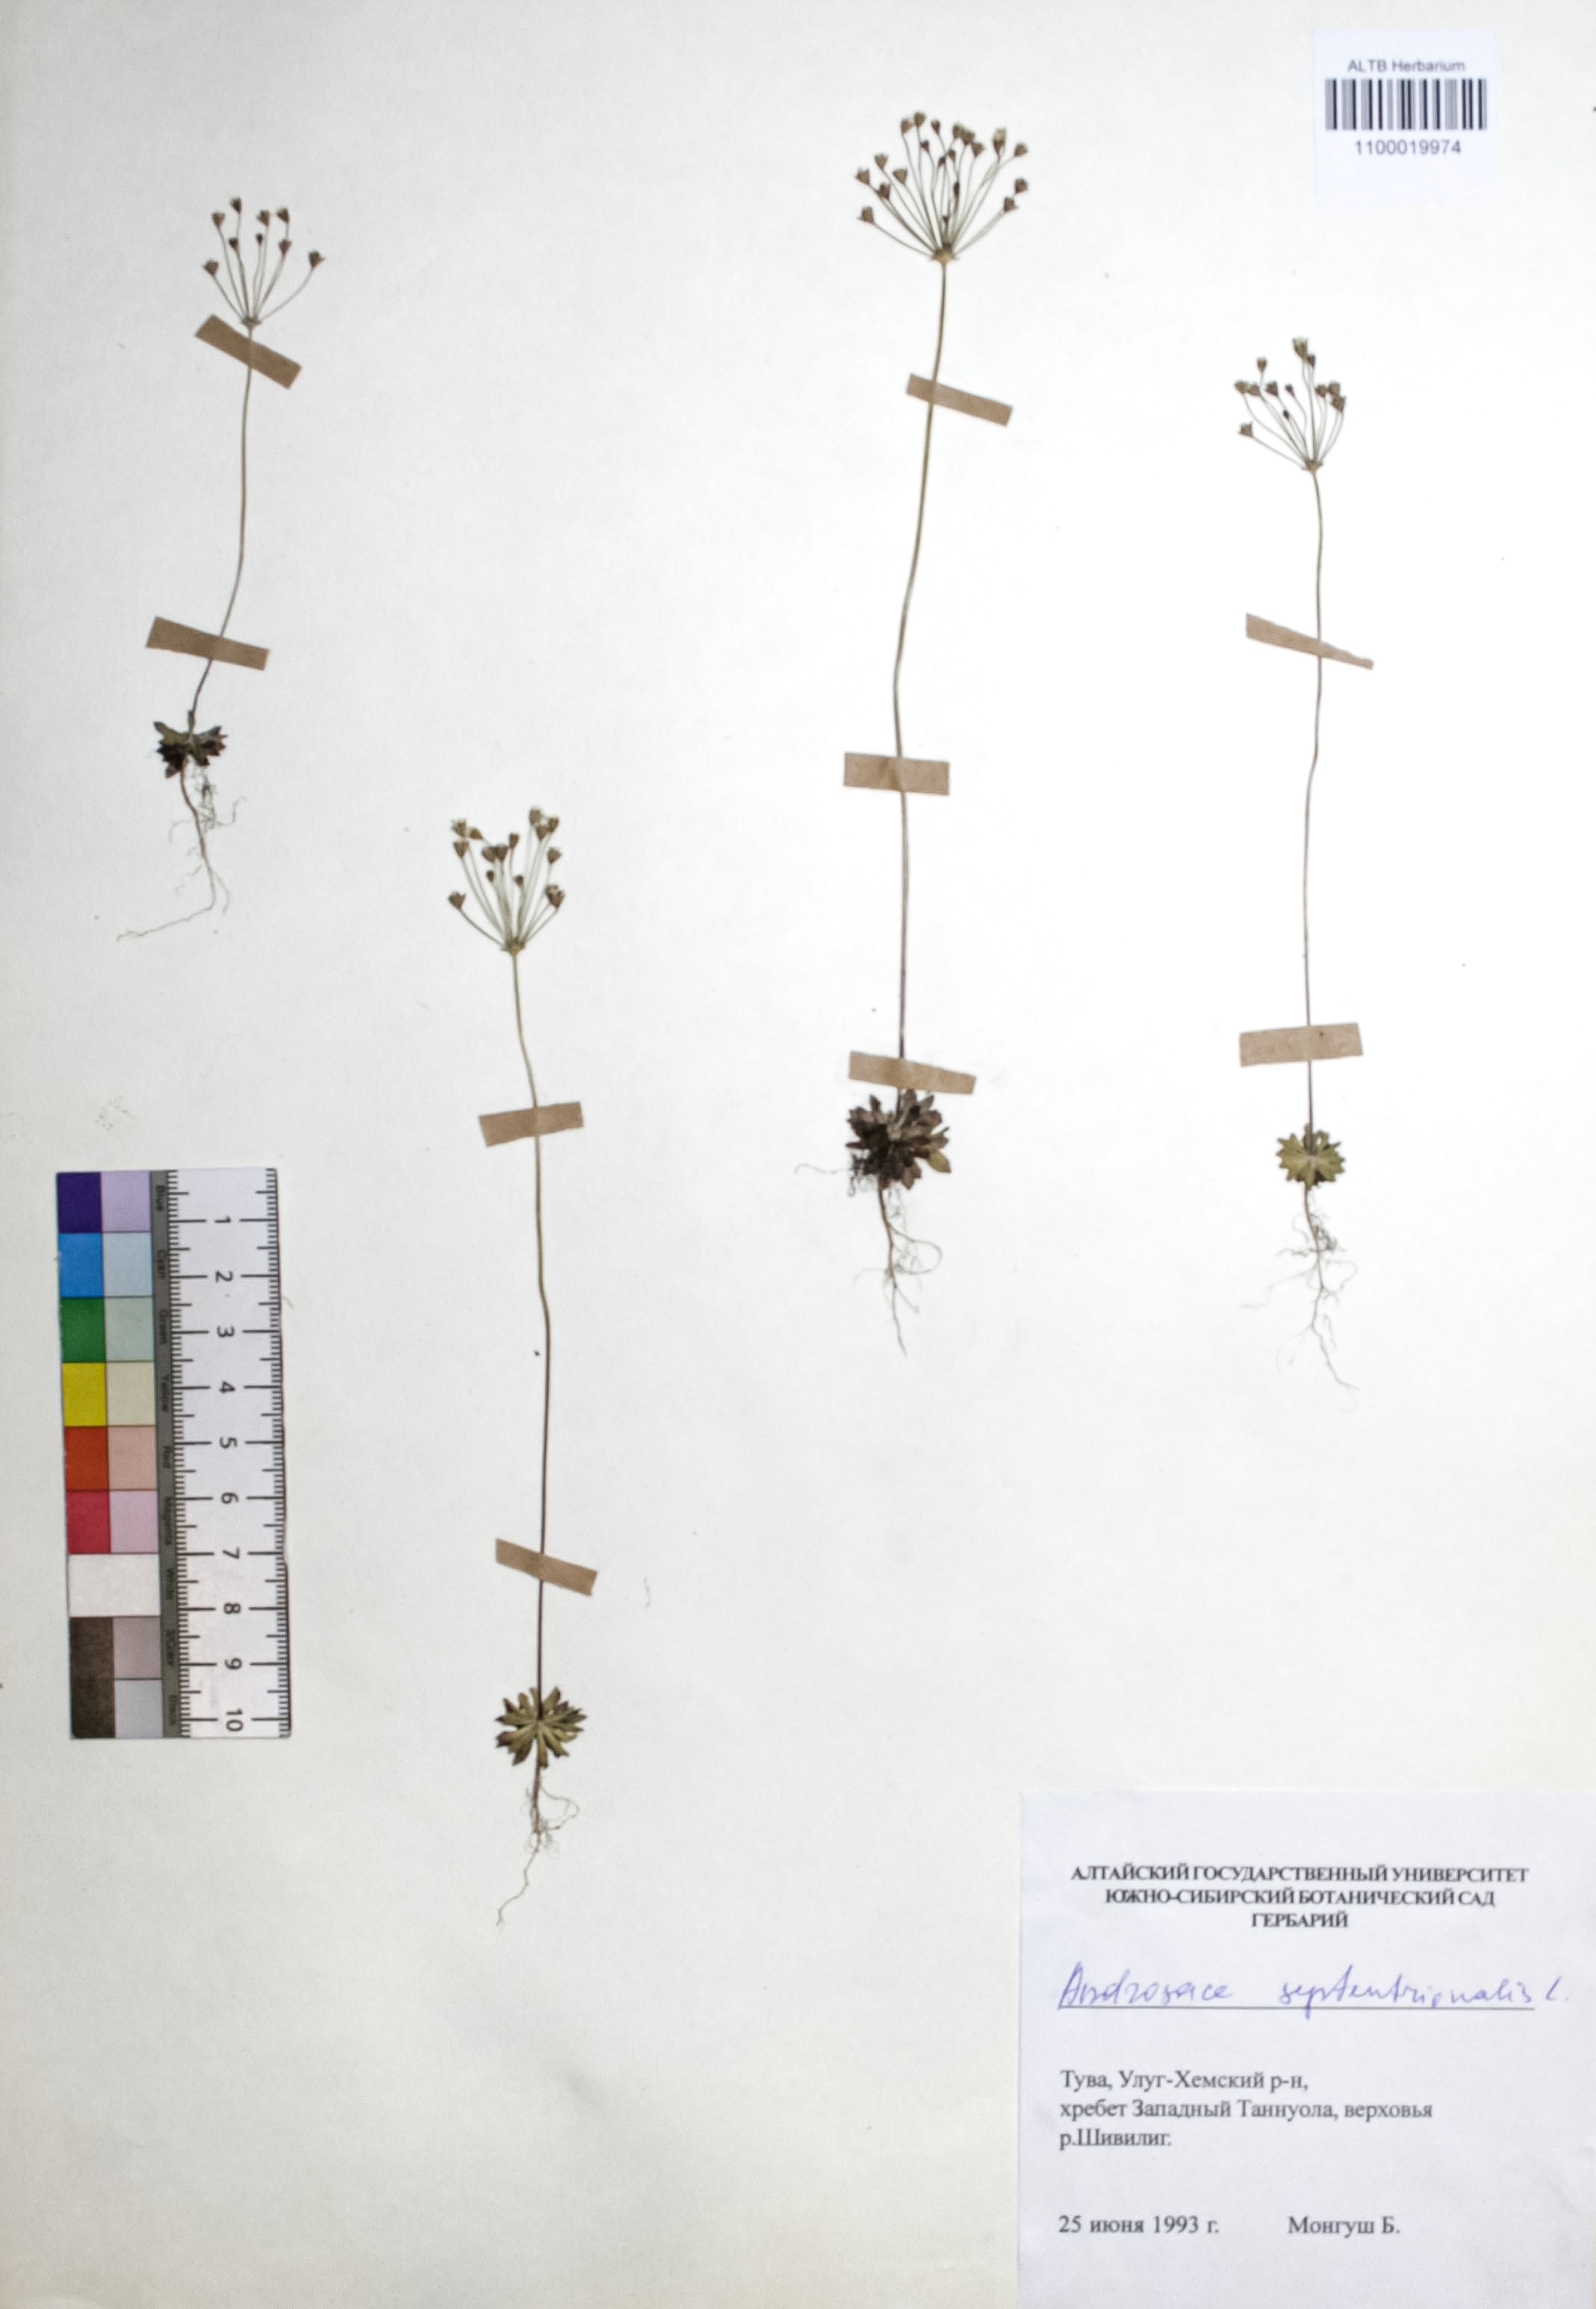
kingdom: Plantae
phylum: Tracheophyta
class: Magnoliopsida
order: Ericales
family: Primulaceae
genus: Androsace
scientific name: Androsace septentrionalis
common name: Hairy northern fairy-candelabra
